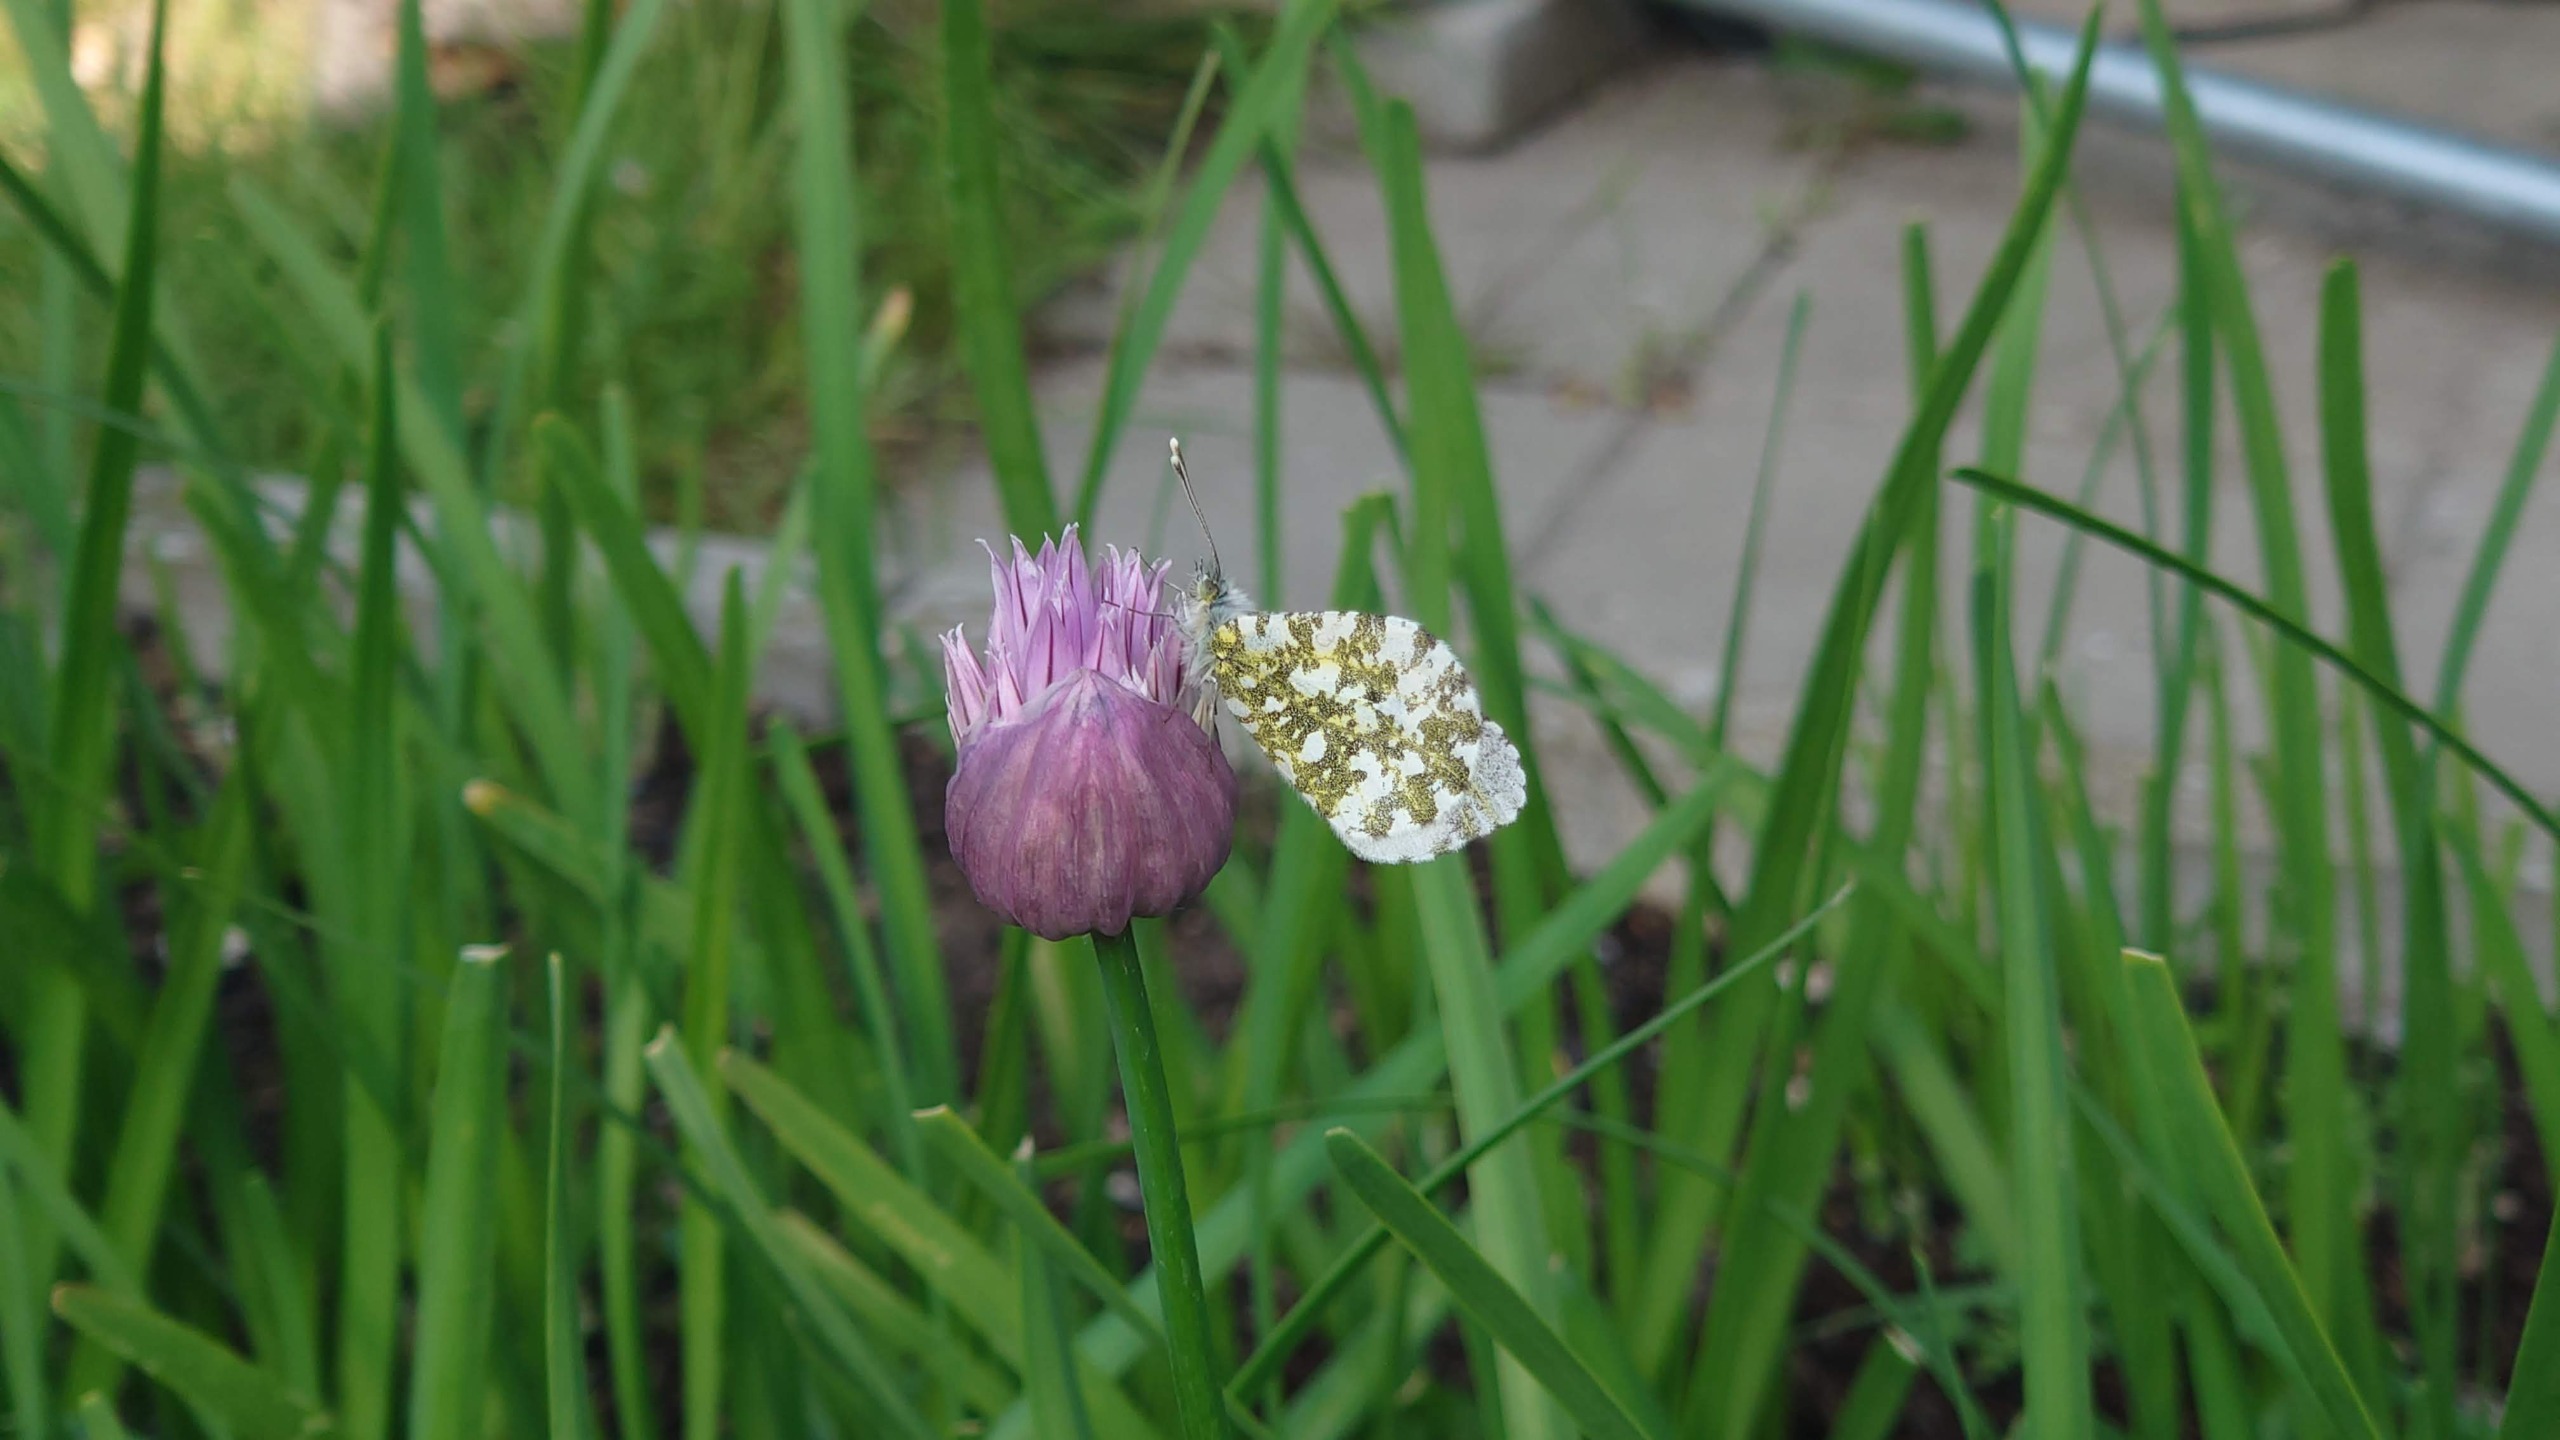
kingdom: Animalia
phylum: Arthropoda
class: Insecta
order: Lepidoptera
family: Pieridae
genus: Anthocharis
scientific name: Anthocharis cardamines
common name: Aurora
